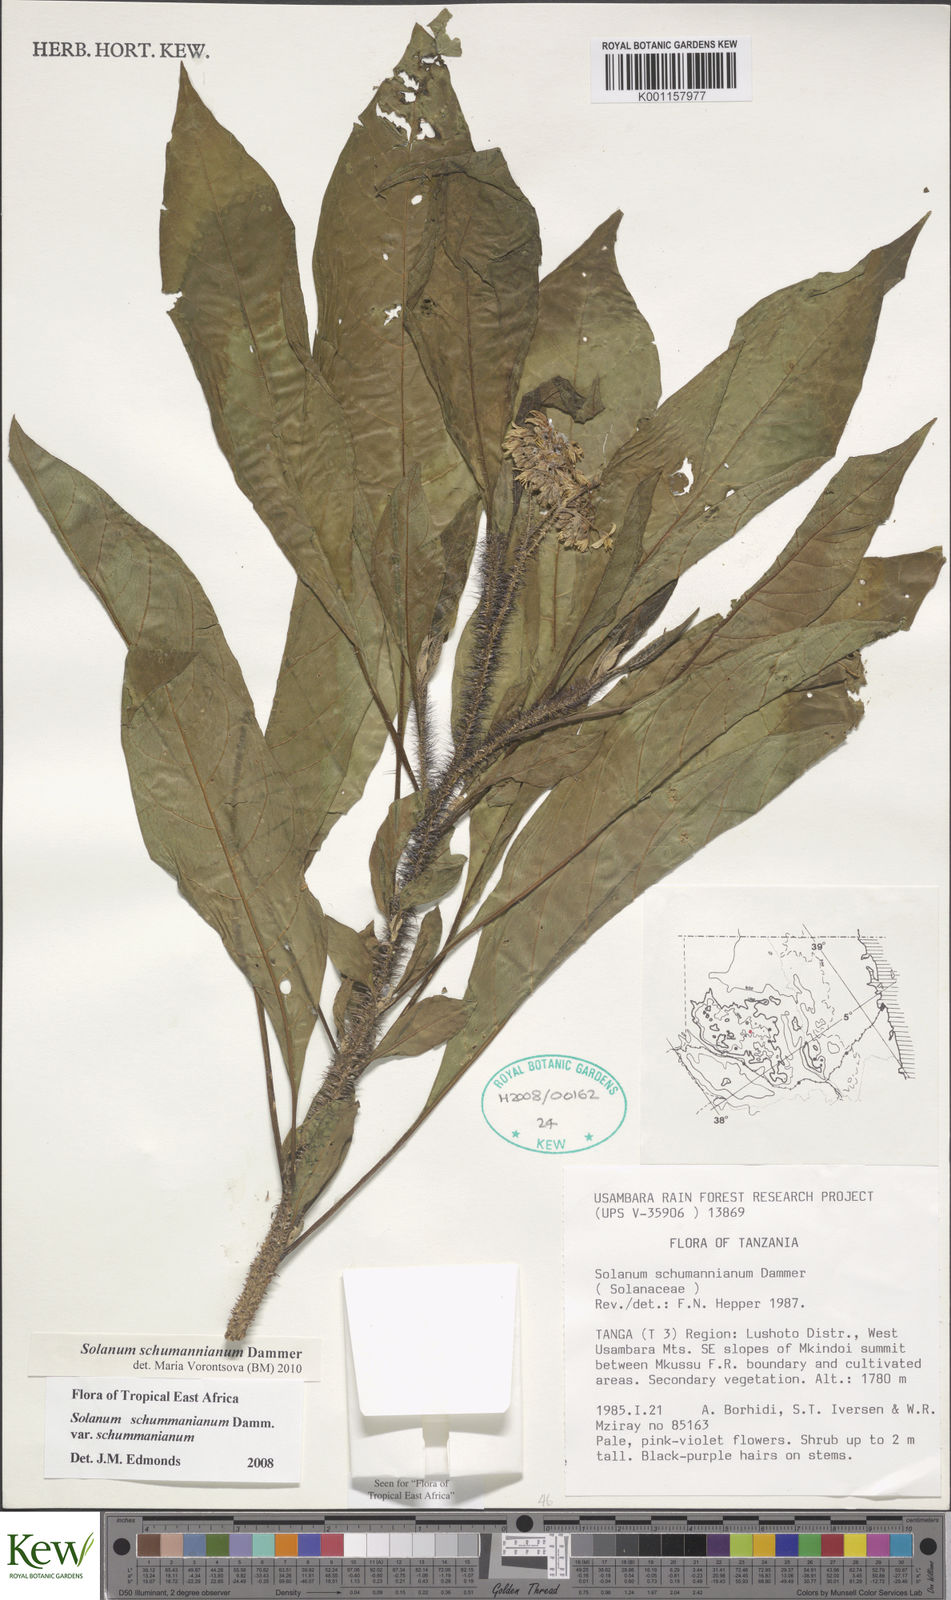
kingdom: Plantae
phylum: Tracheophyta
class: Magnoliopsida
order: Solanales
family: Solanaceae
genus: Solanum
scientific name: Solanum schumannianum
